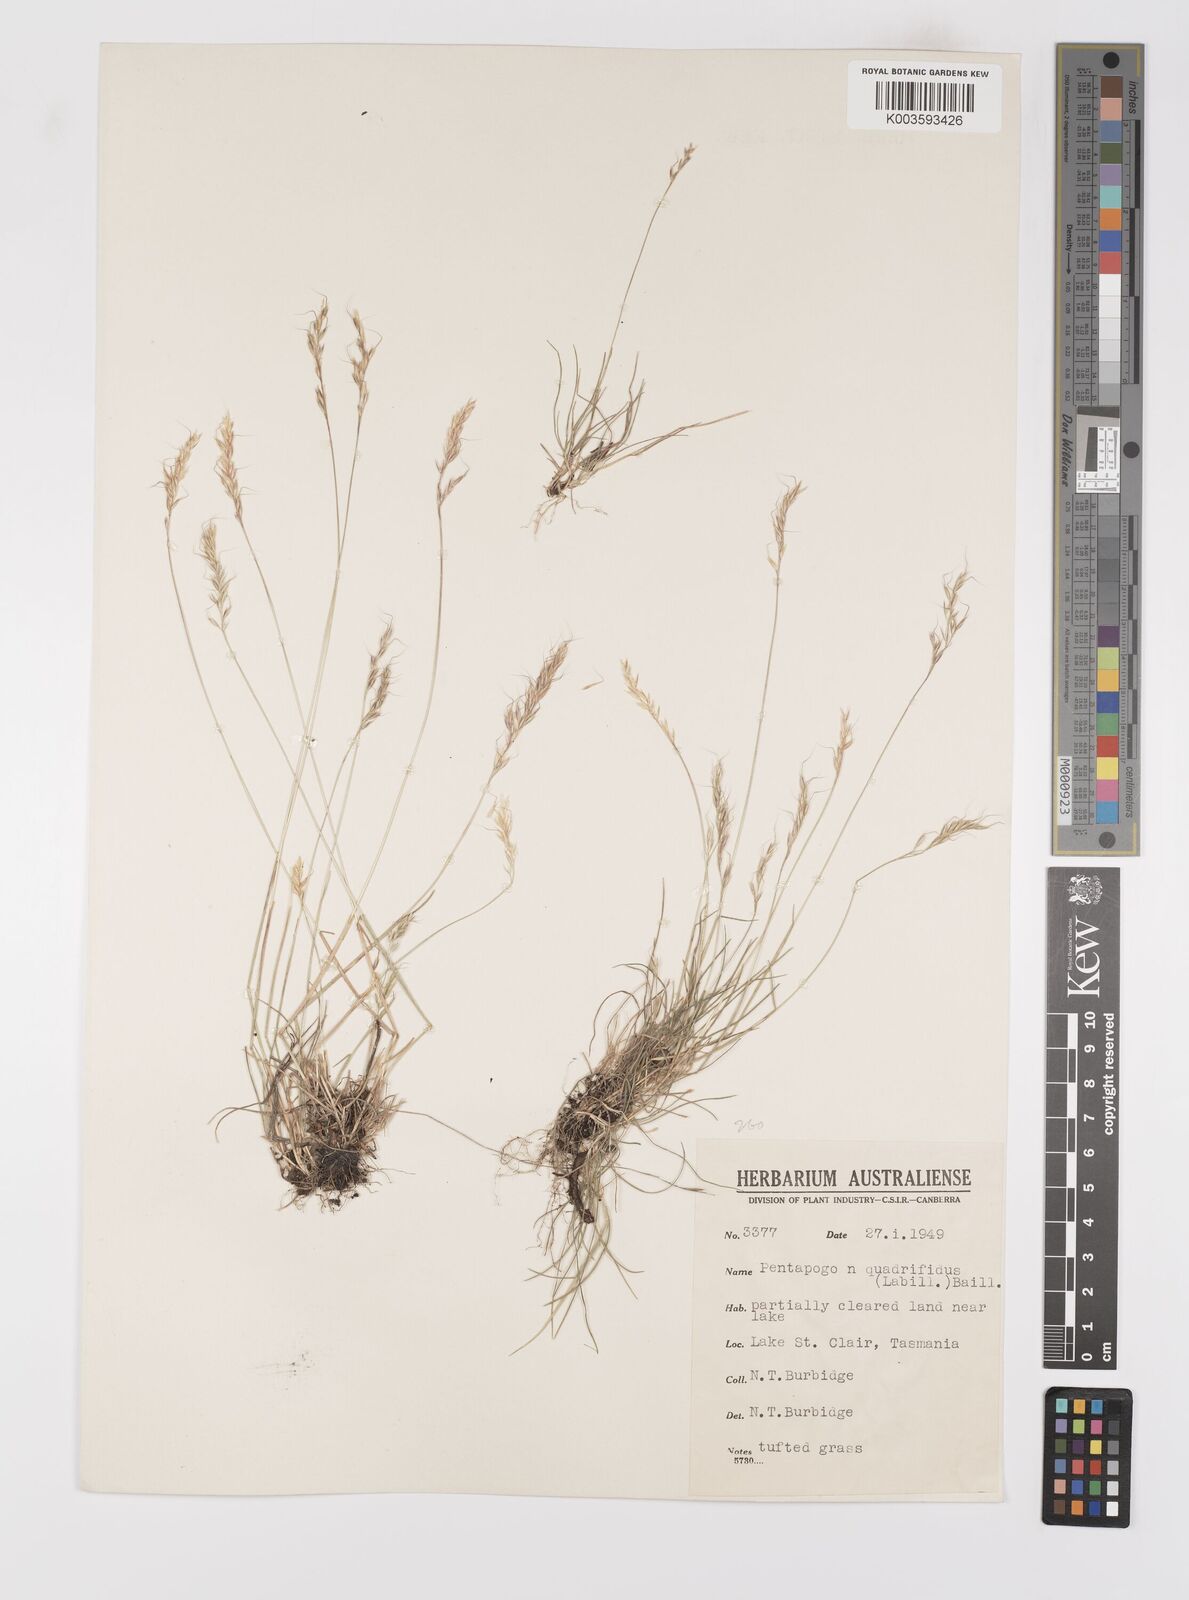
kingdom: Plantae
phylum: Tracheophyta
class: Liliopsida
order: Poales
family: Poaceae
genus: Pentapogon
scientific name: Pentapogon quadrifidus
